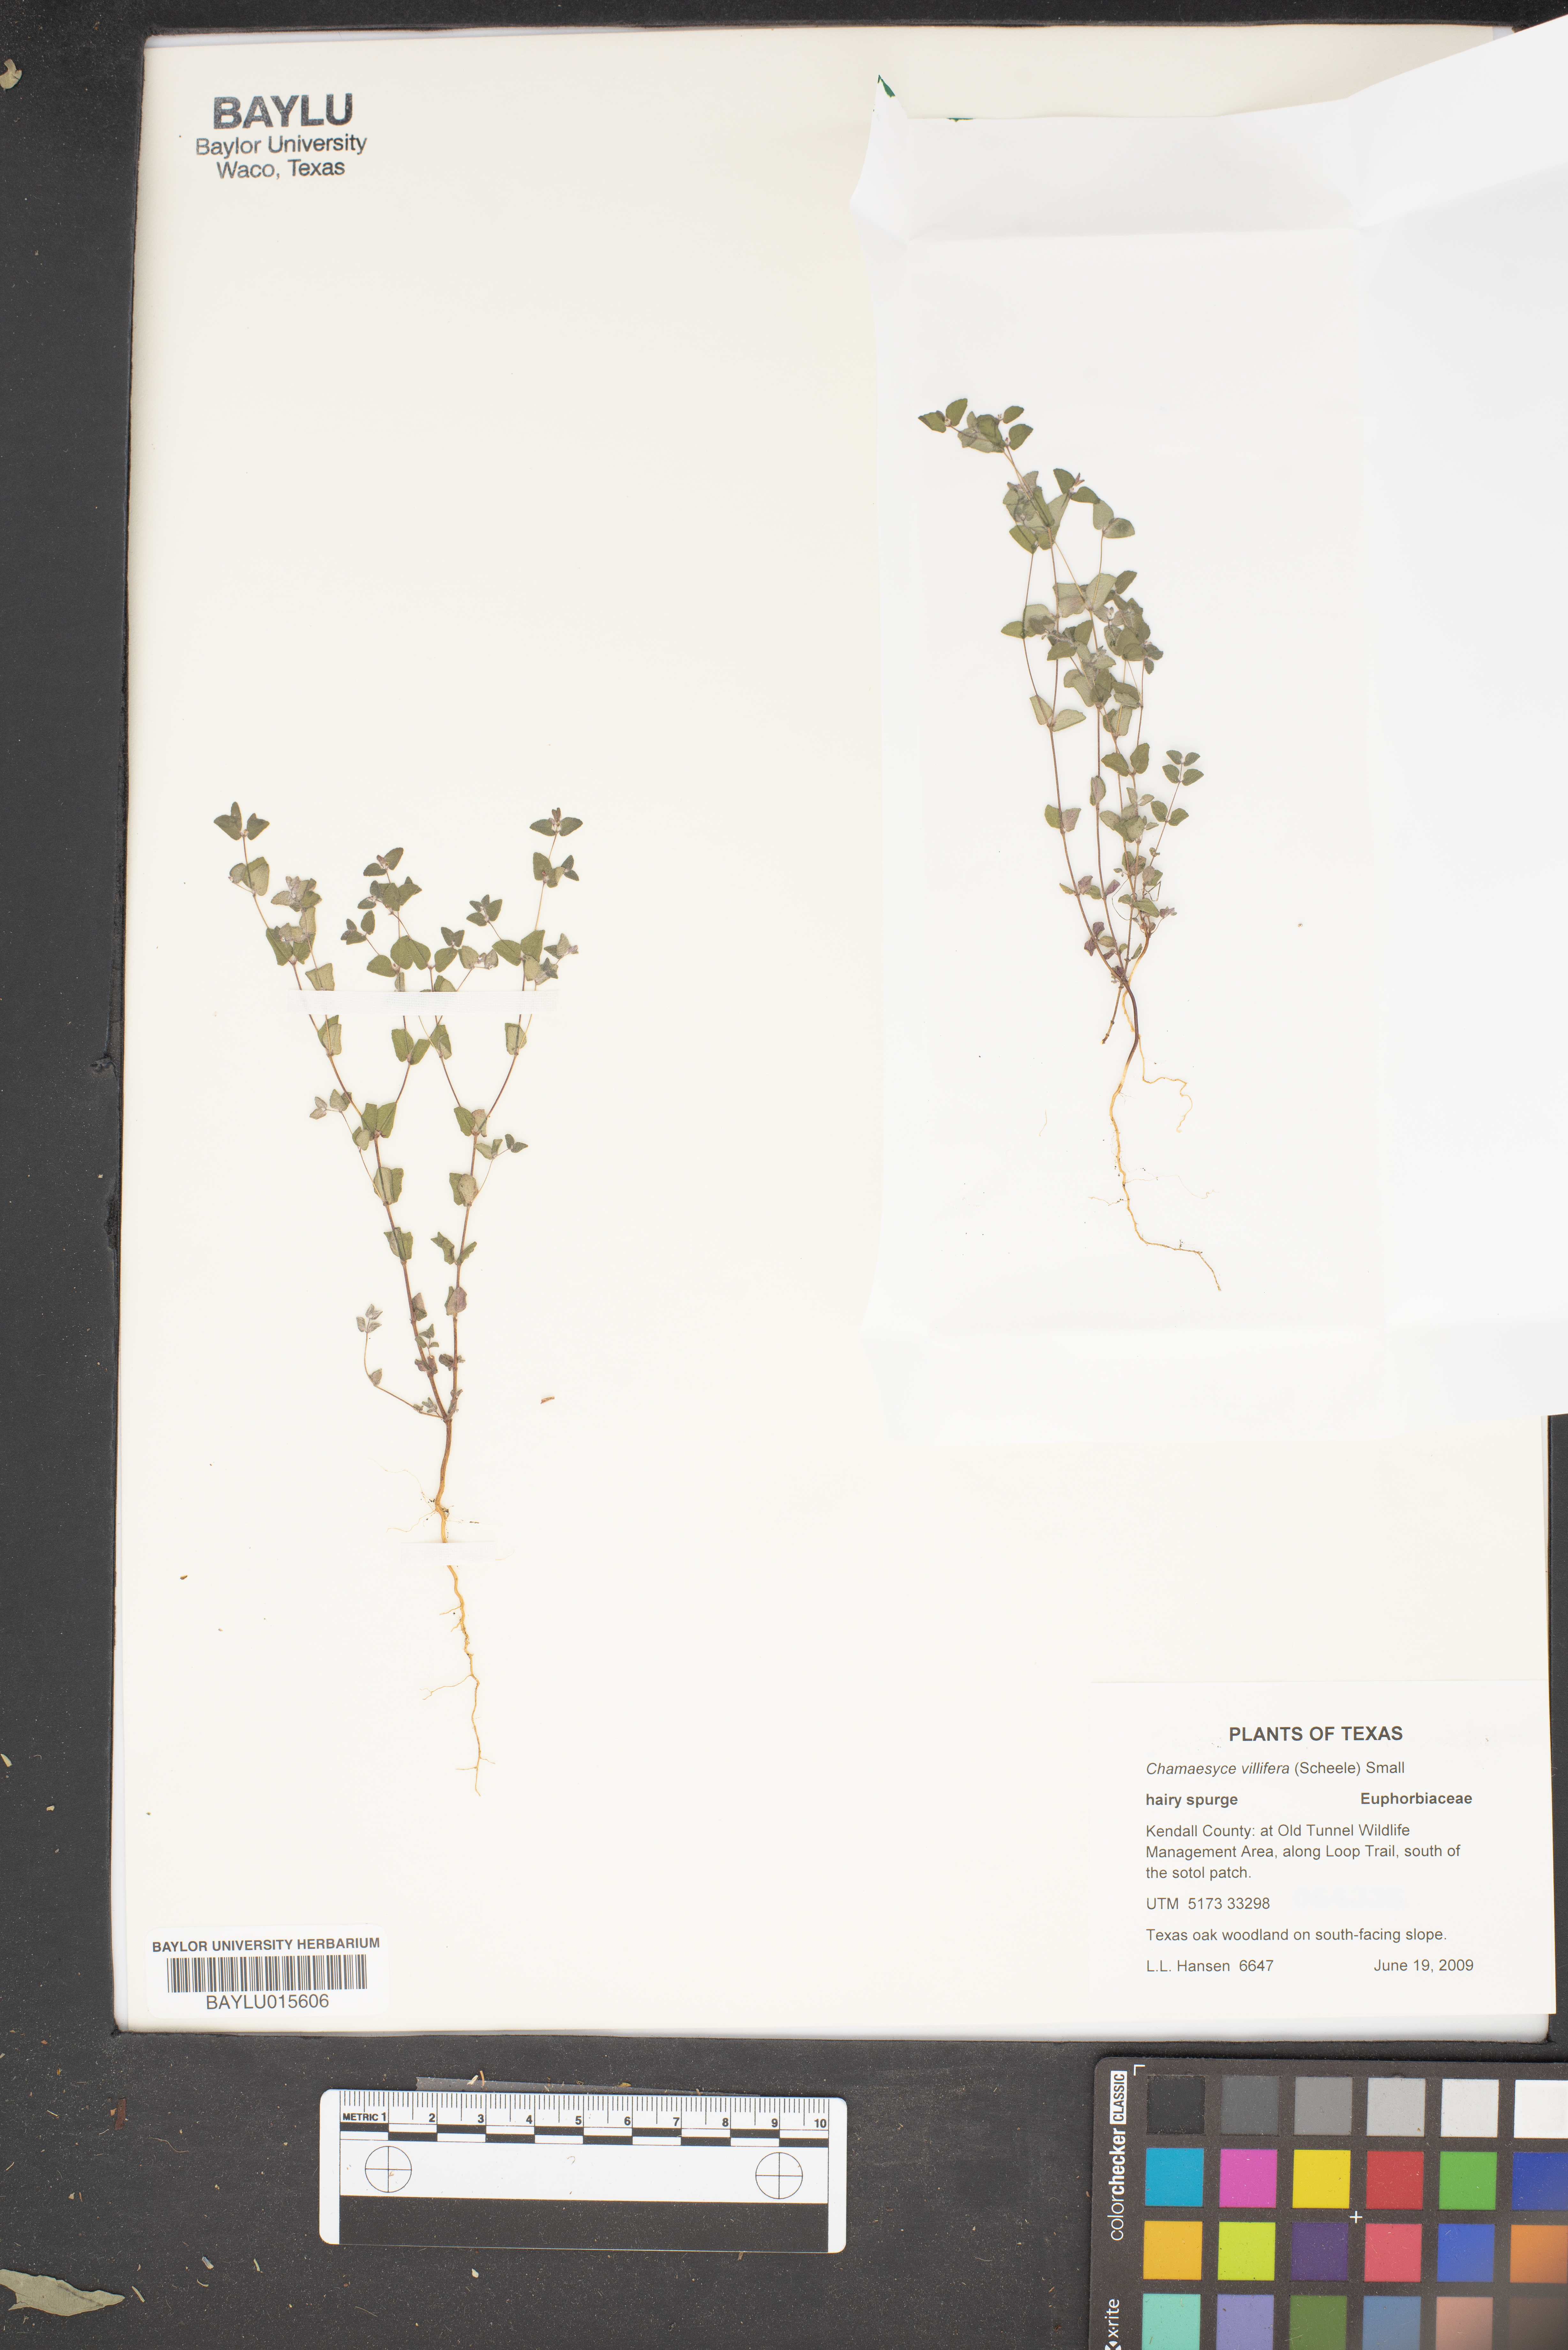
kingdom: Plantae
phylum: Tracheophyta
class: Magnoliopsida
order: Malpighiales
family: Euphorbiaceae
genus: Euphorbia
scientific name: Euphorbia villifera
